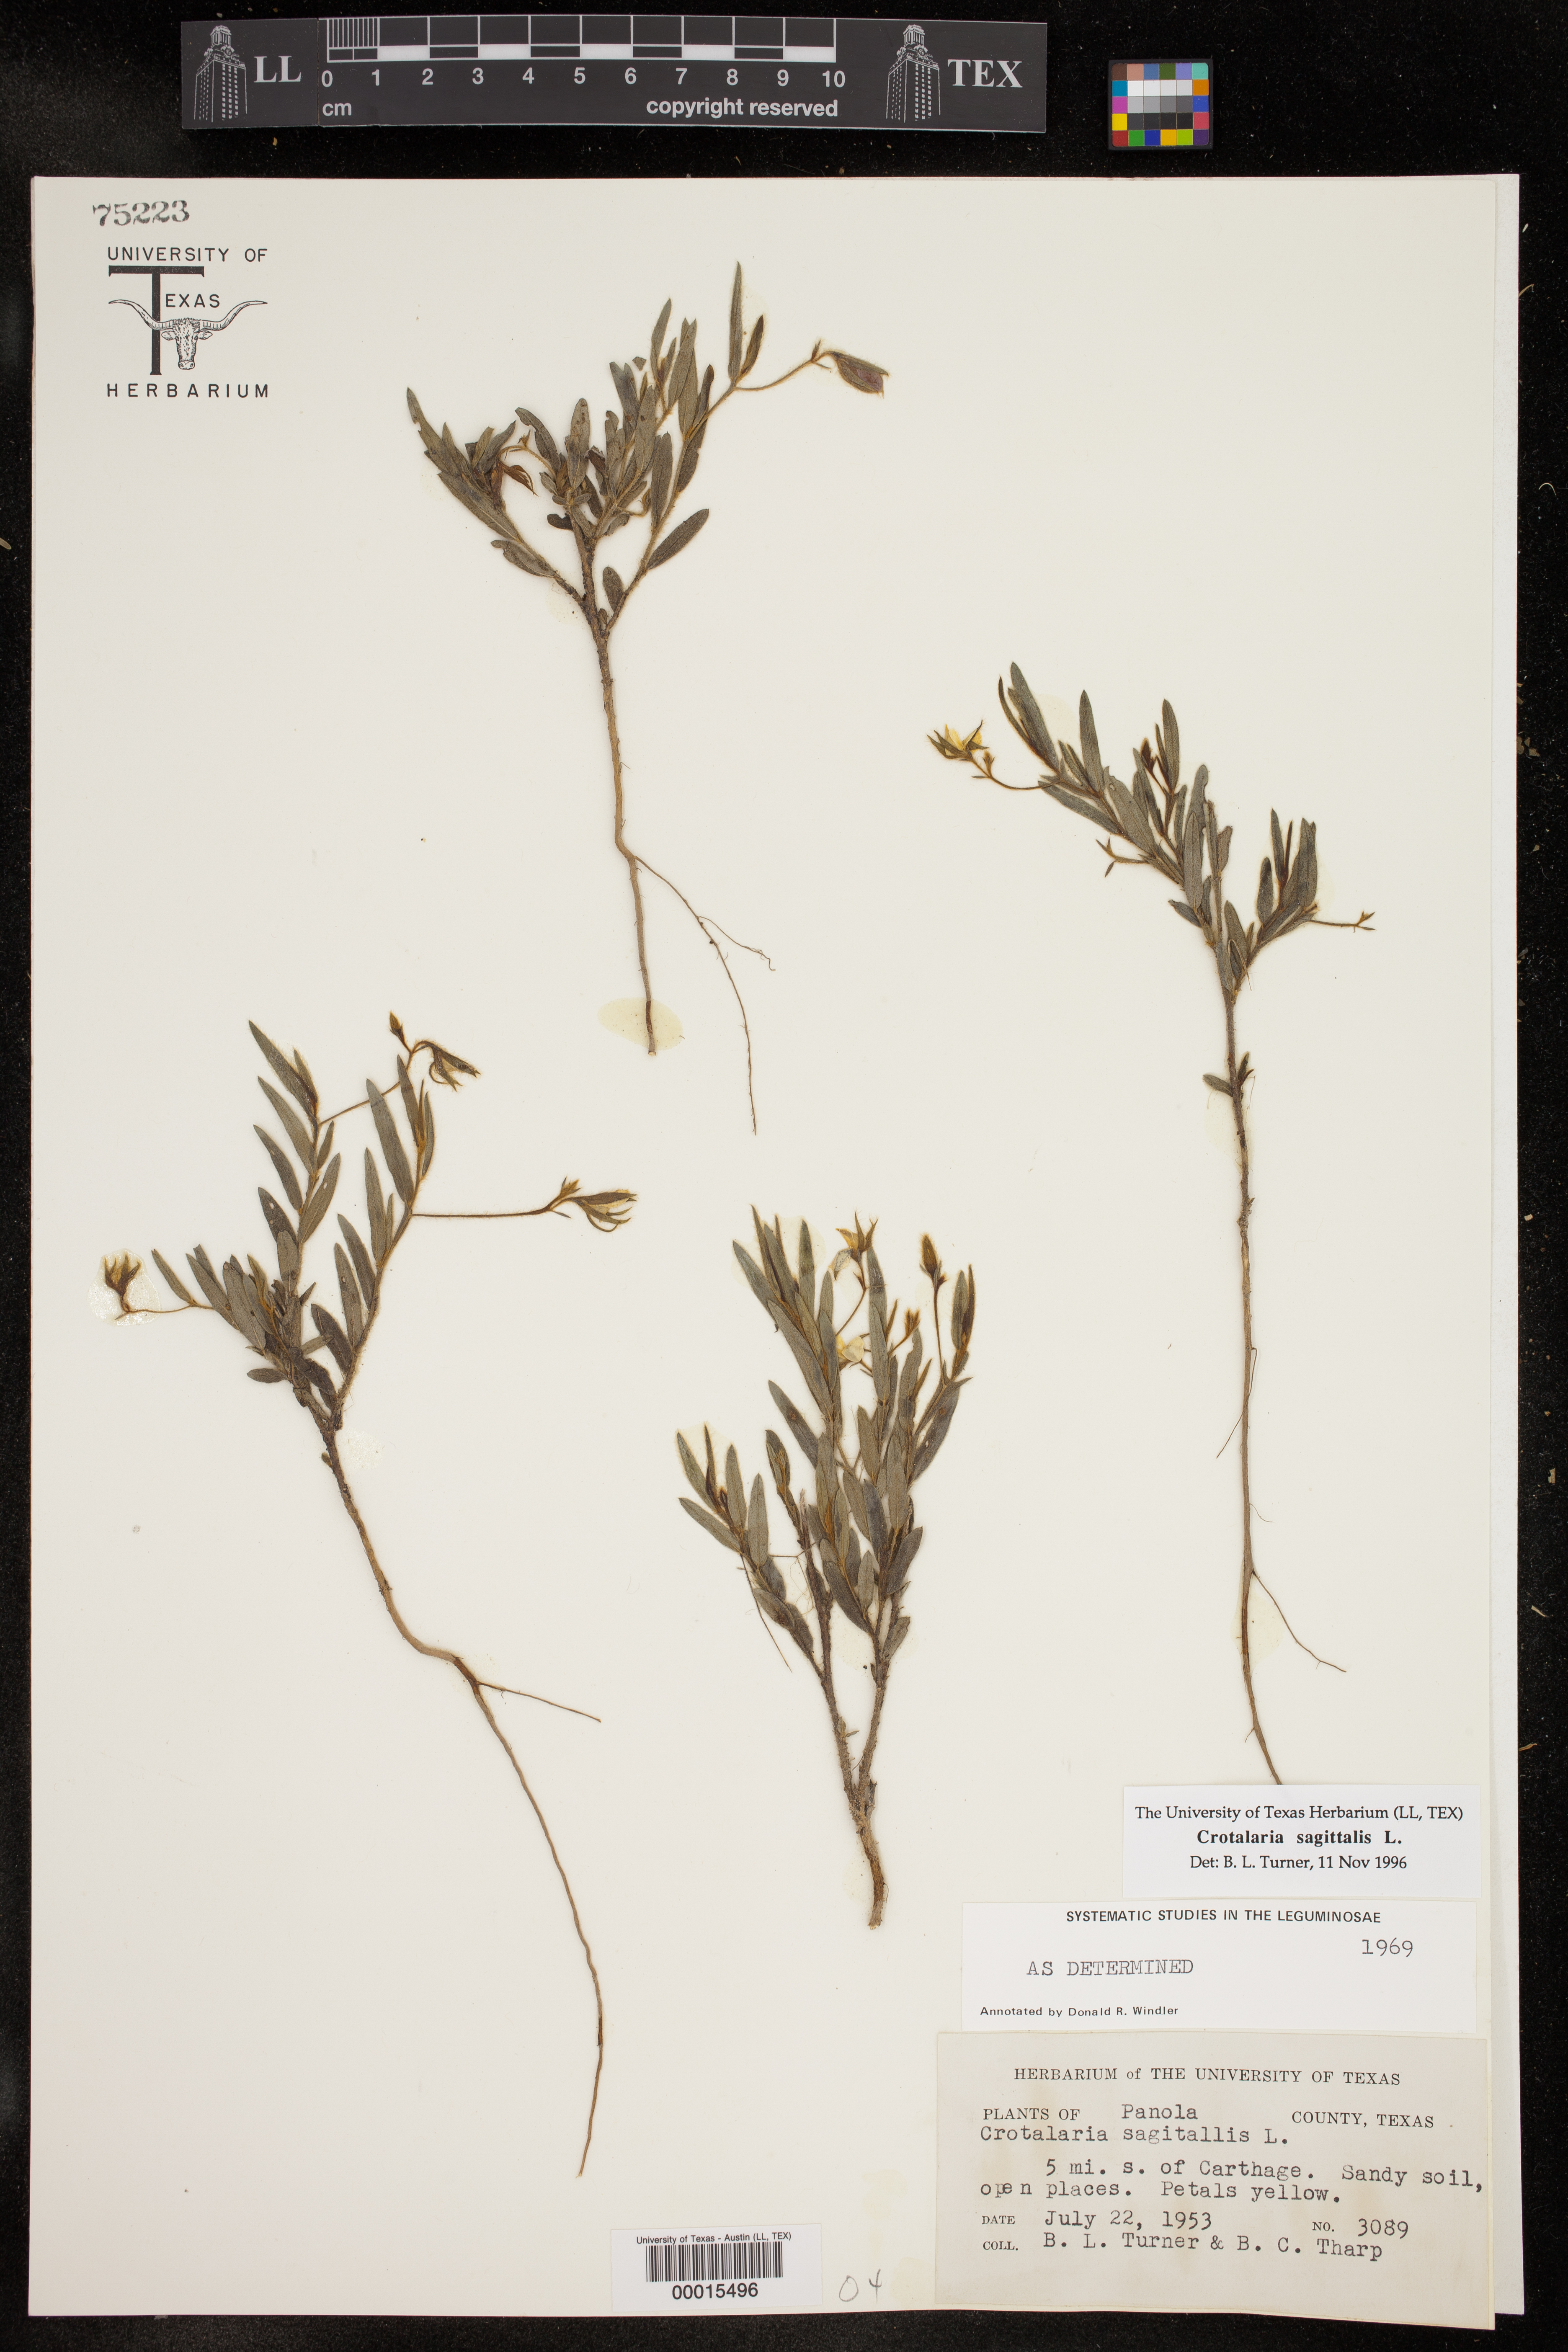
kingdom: Plantae
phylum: Tracheophyta
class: Magnoliopsida
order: Fabales
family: Fabaceae
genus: Crotalaria
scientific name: Crotalaria sagittalis
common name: Arrowhead rattlebox
